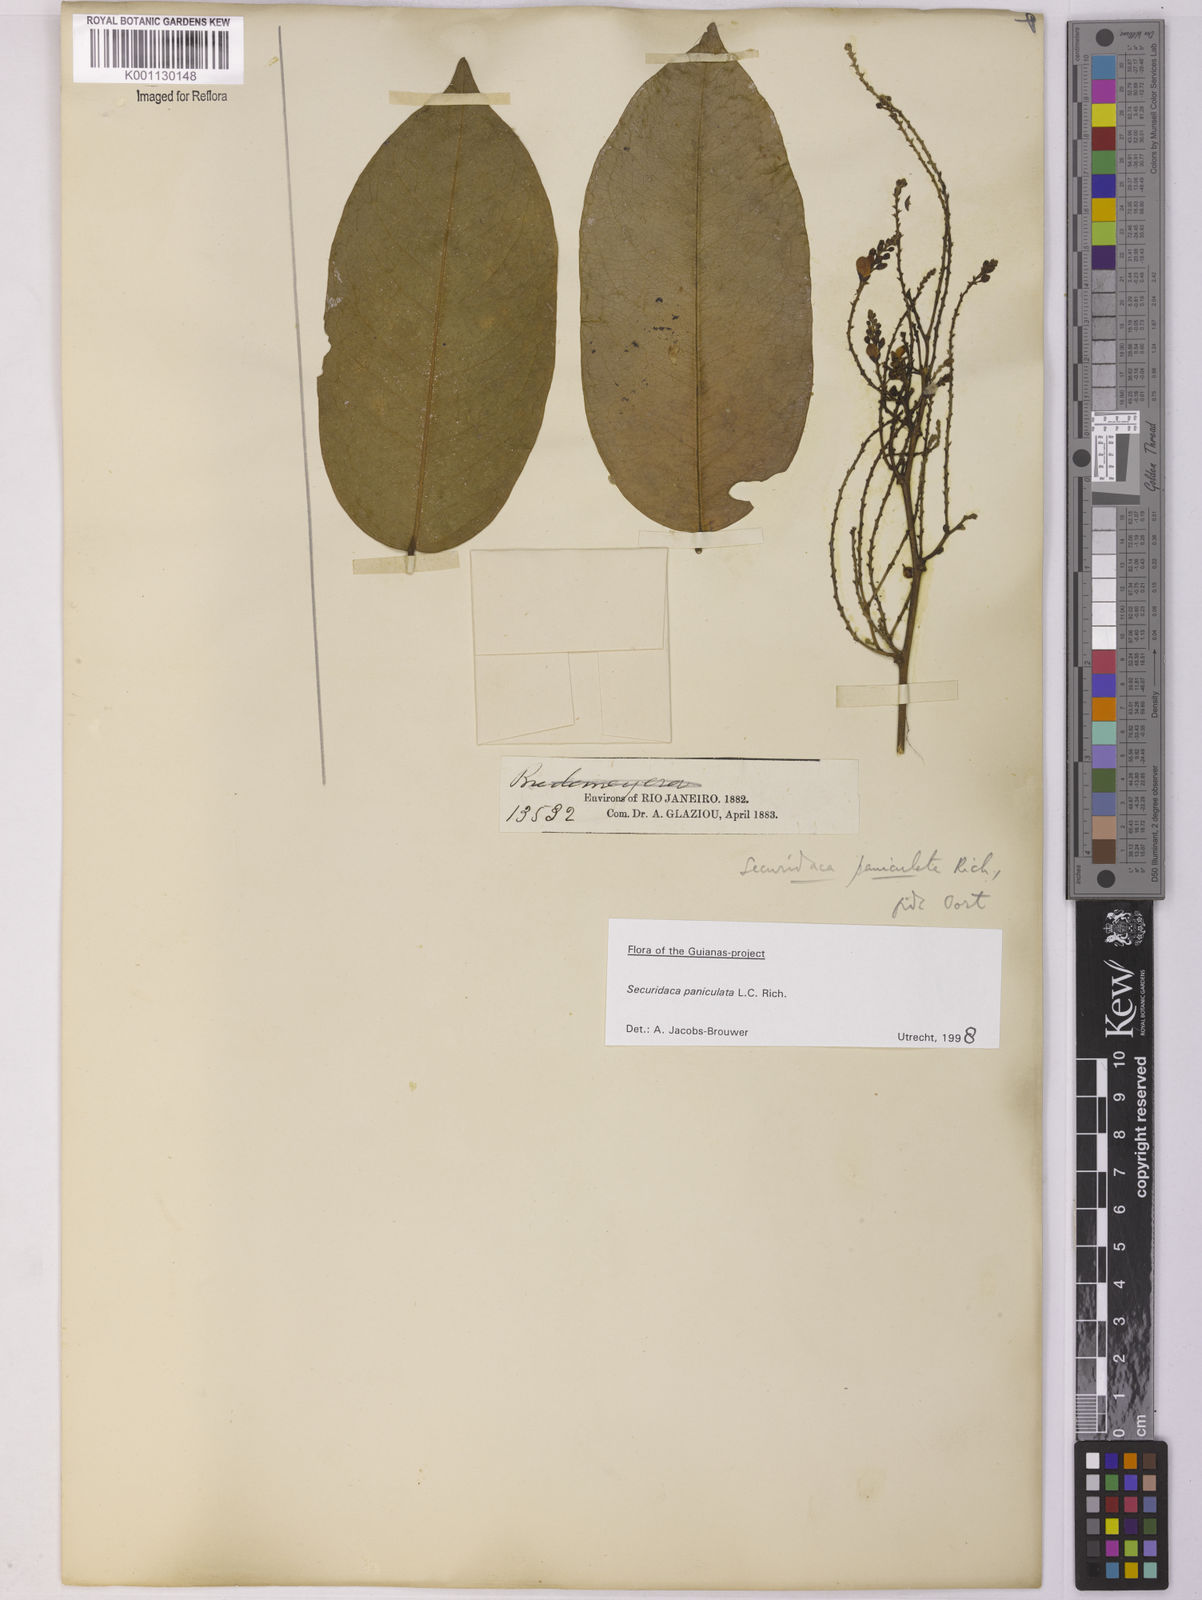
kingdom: Plantae
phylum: Tracheophyta
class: Magnoliopsida
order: Fabales
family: Polygalaceae
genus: Securidaca
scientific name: Securidaca paniculata
